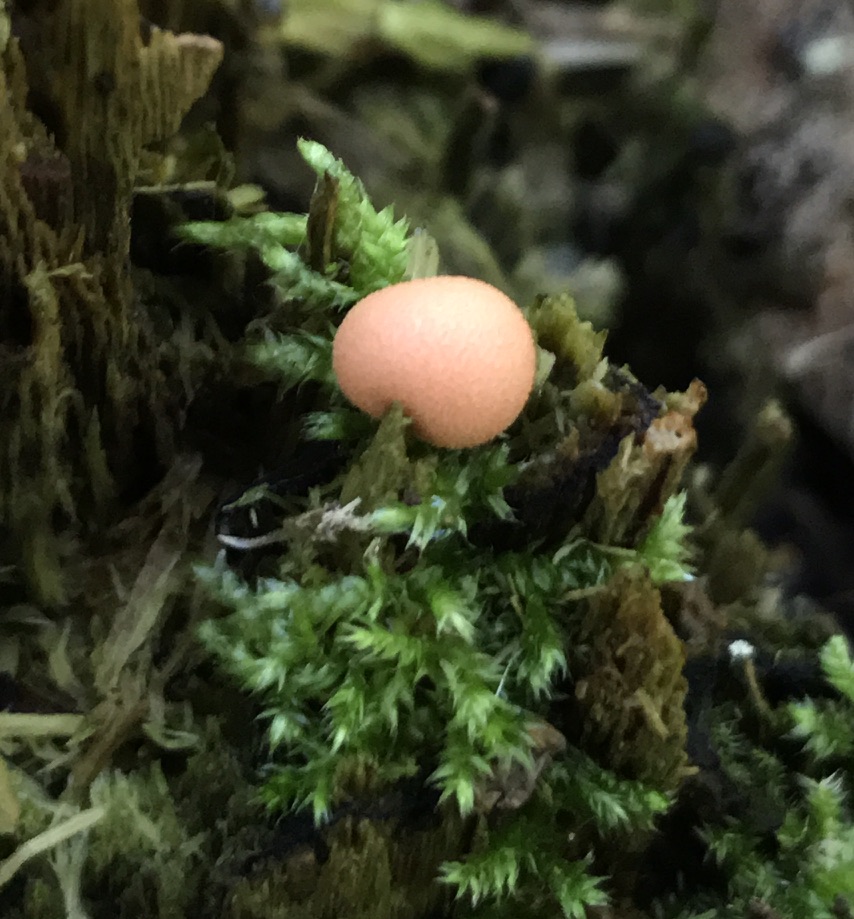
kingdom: Protozoa
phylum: Mycetozoa
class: Myxomycetes
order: Cribrariales
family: Tubiferaceae
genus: Lycogala
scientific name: Lycogala epidendrum
